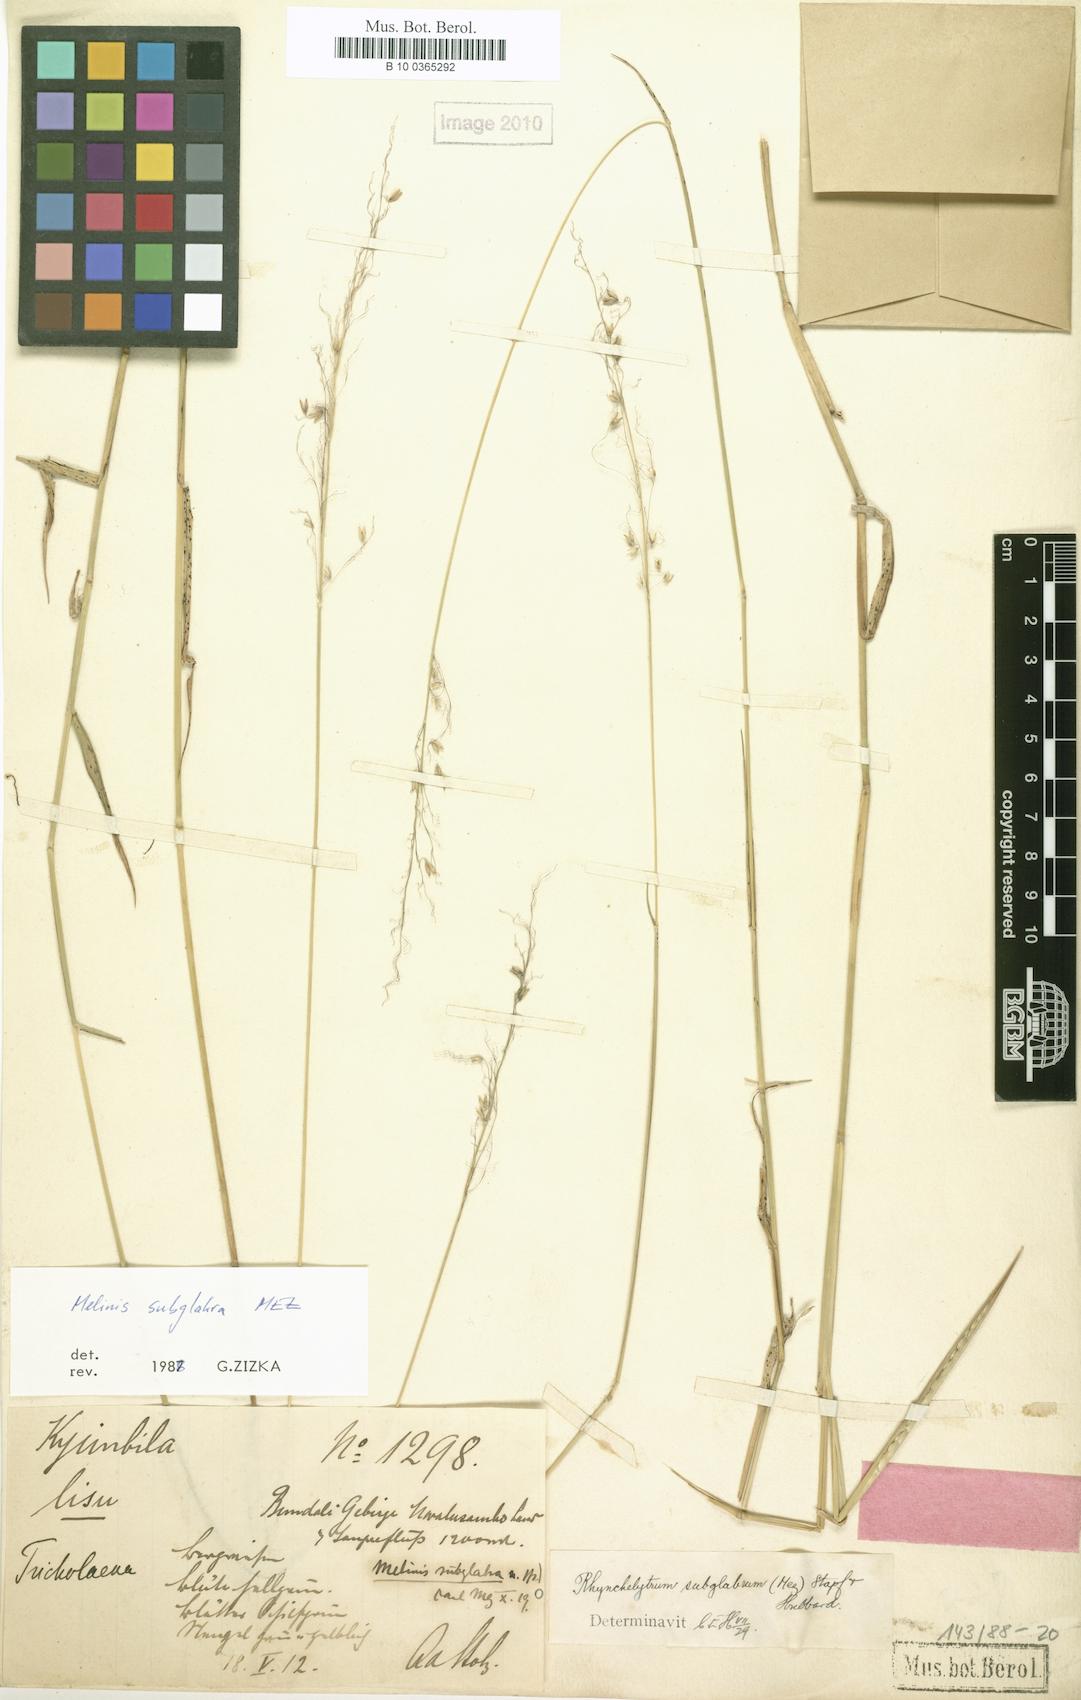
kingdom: Plantae
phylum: Tracheophyta
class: Liliopsida
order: Poales
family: Poaceae
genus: Melinis
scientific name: Melinis subglabra
